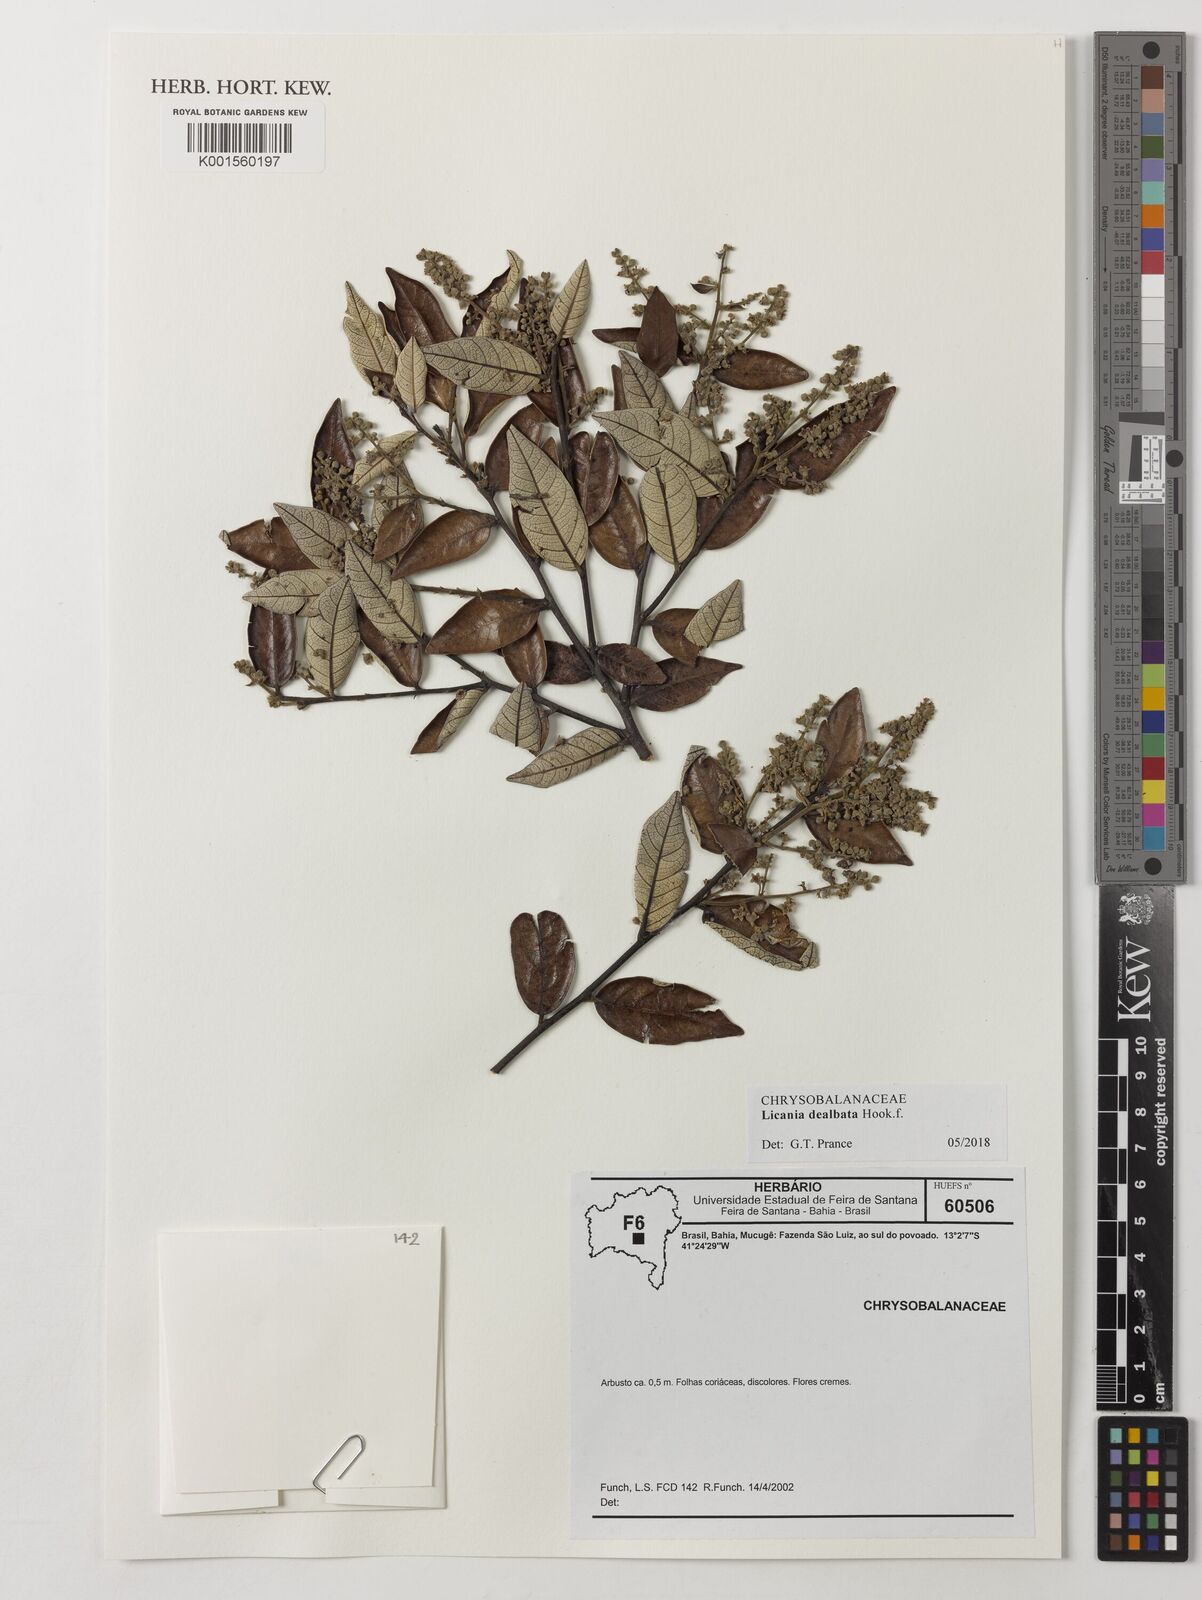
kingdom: Plantae
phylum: Tracheophyta
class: Magnoliopsida
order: Malpighiales
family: Chrysobalanaceae
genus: Licania
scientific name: Licania dealbata
